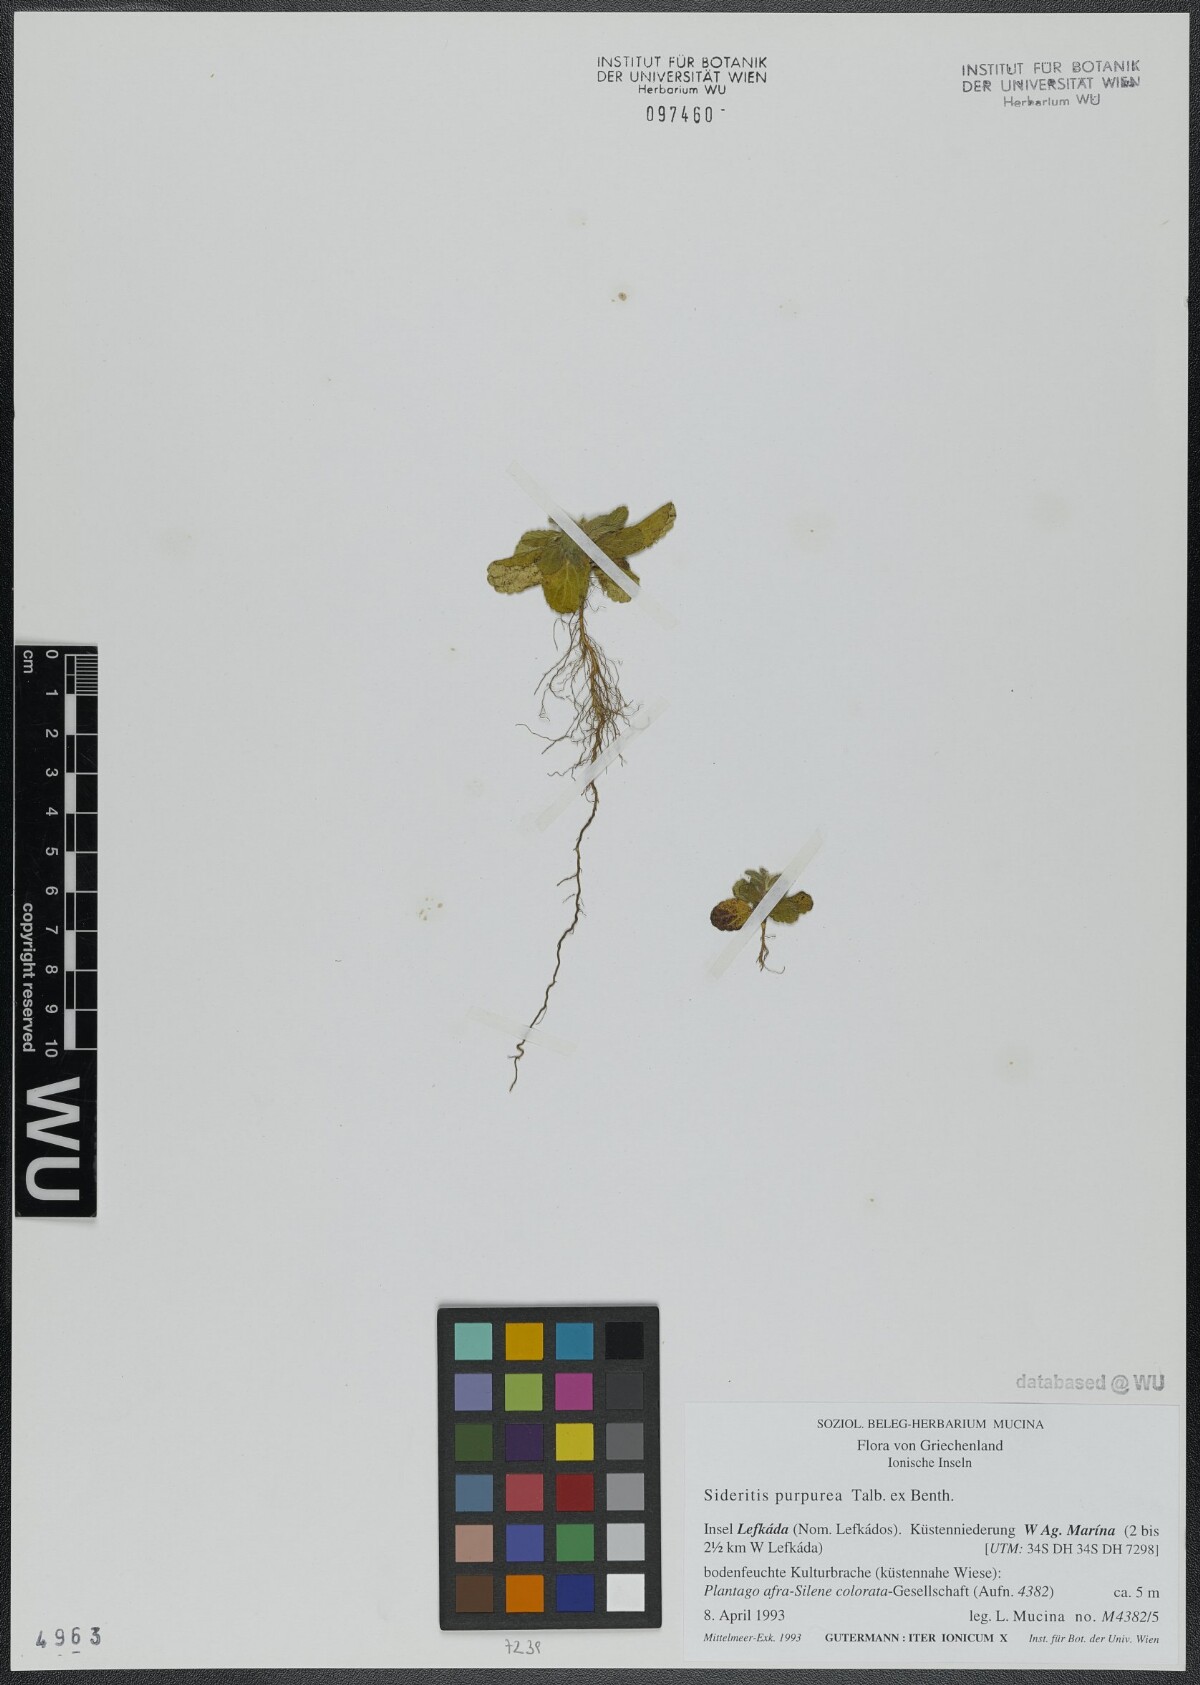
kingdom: Plantae
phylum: Tracheophyta
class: Magnoliopsida
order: Lamiales
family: Lamiaceae
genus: Sideritis
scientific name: Sideritis romana
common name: Simplebeak ironwort
